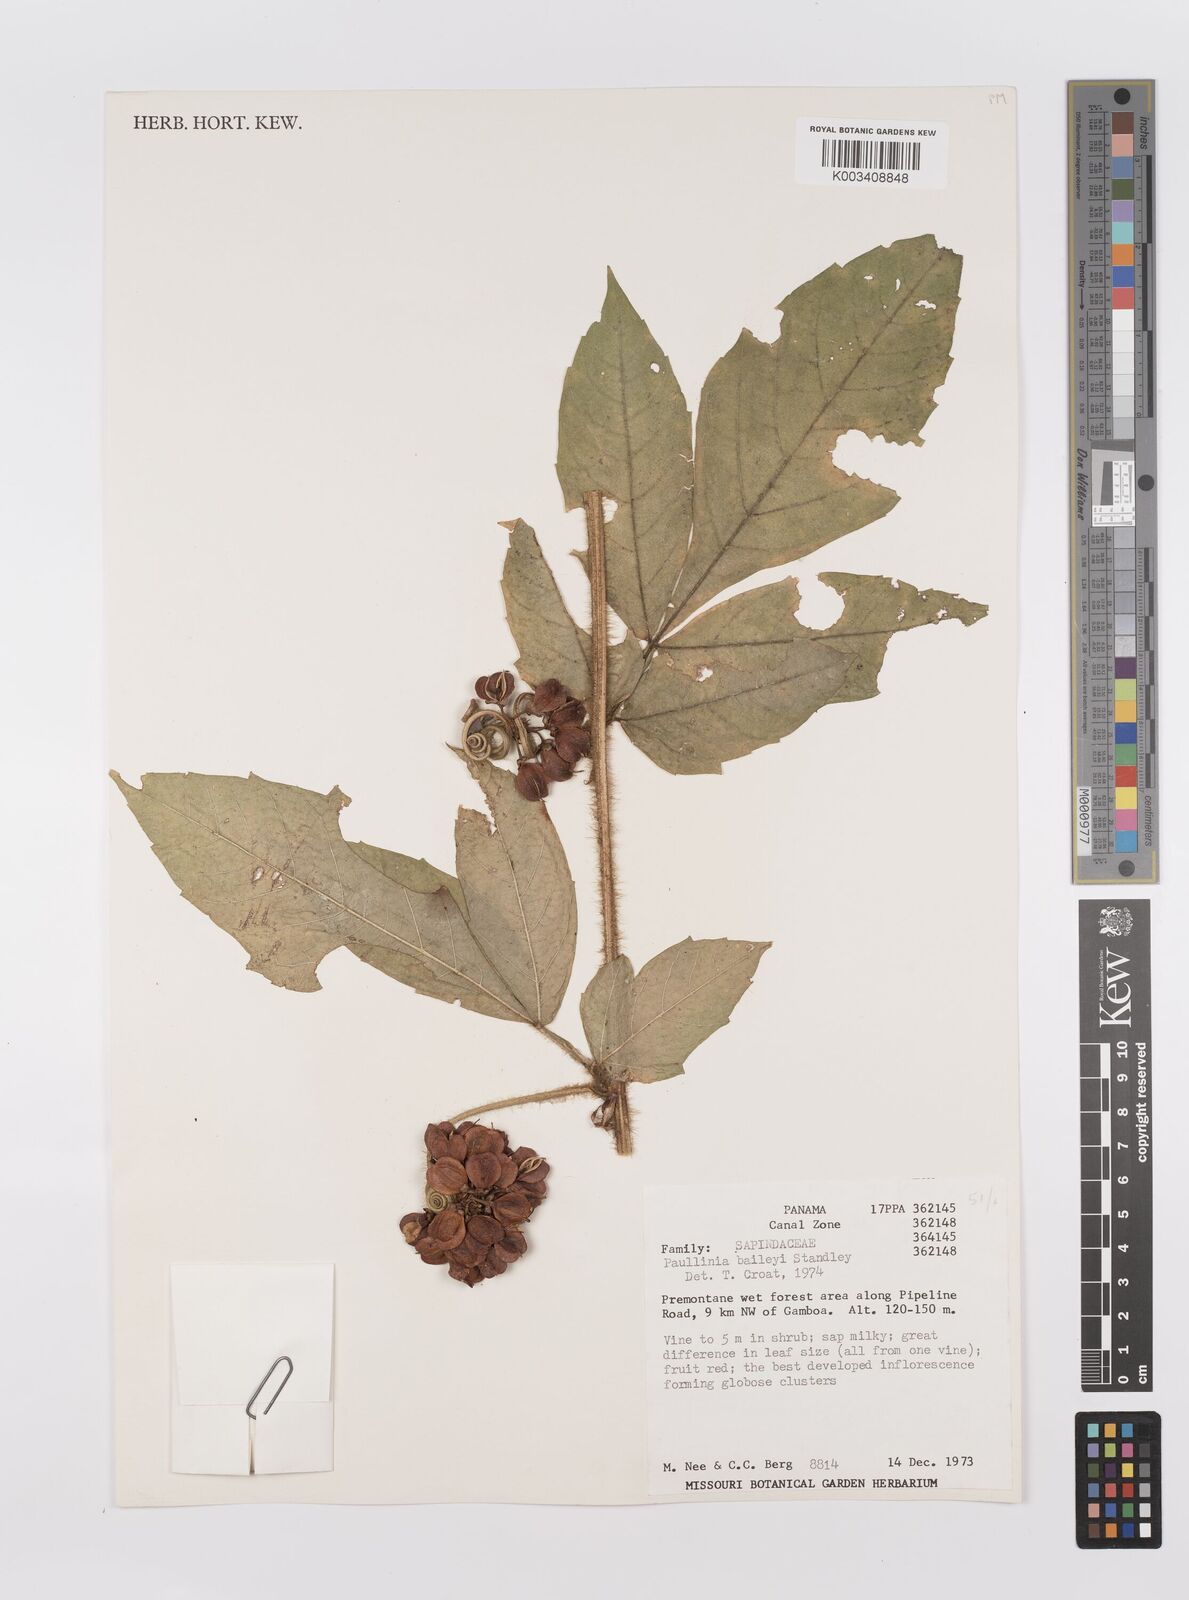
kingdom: Plantae
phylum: Tracheophyta
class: Magnoliopsida
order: Sapindales
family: Sapindaceae
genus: Paullinia
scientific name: Paullinia baileyi
